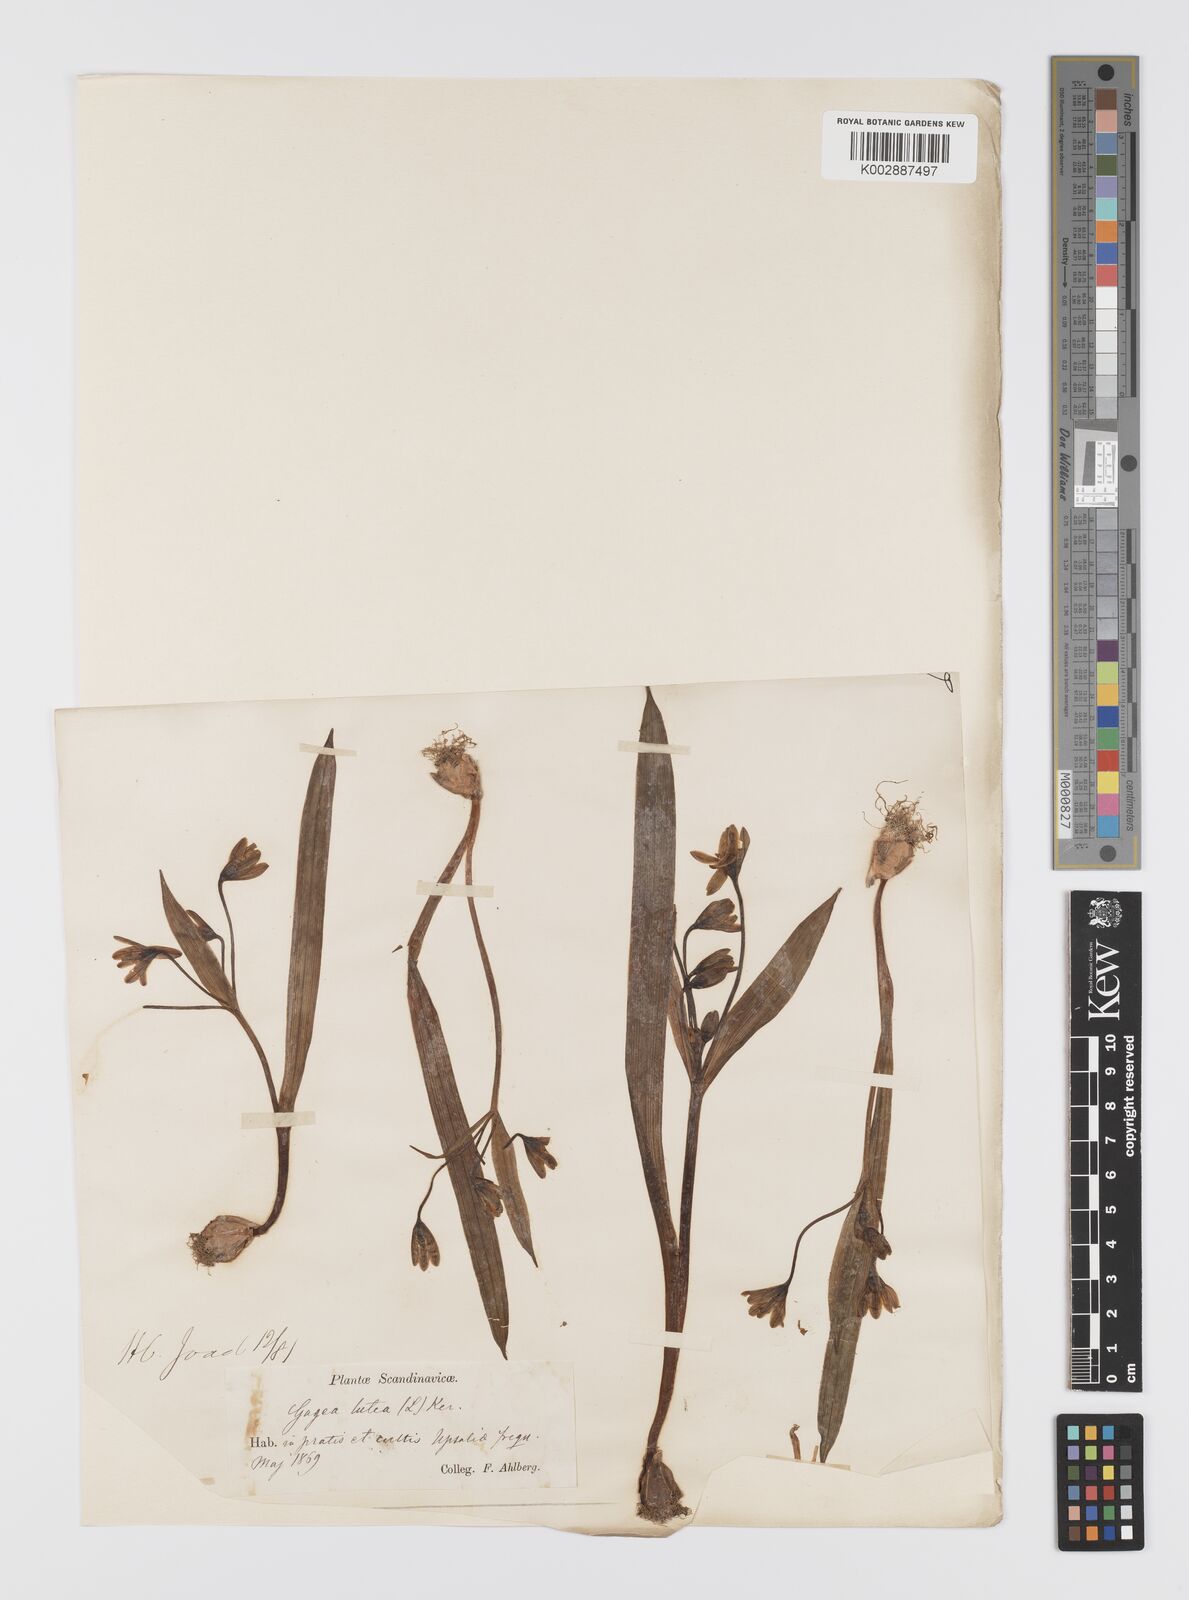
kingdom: Plantae
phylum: Tracheophyta
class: Liliopsida
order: Liliales
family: Liliaceae
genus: Gagea
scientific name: Gagea lutea
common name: Yellow star-of-bethlehem
